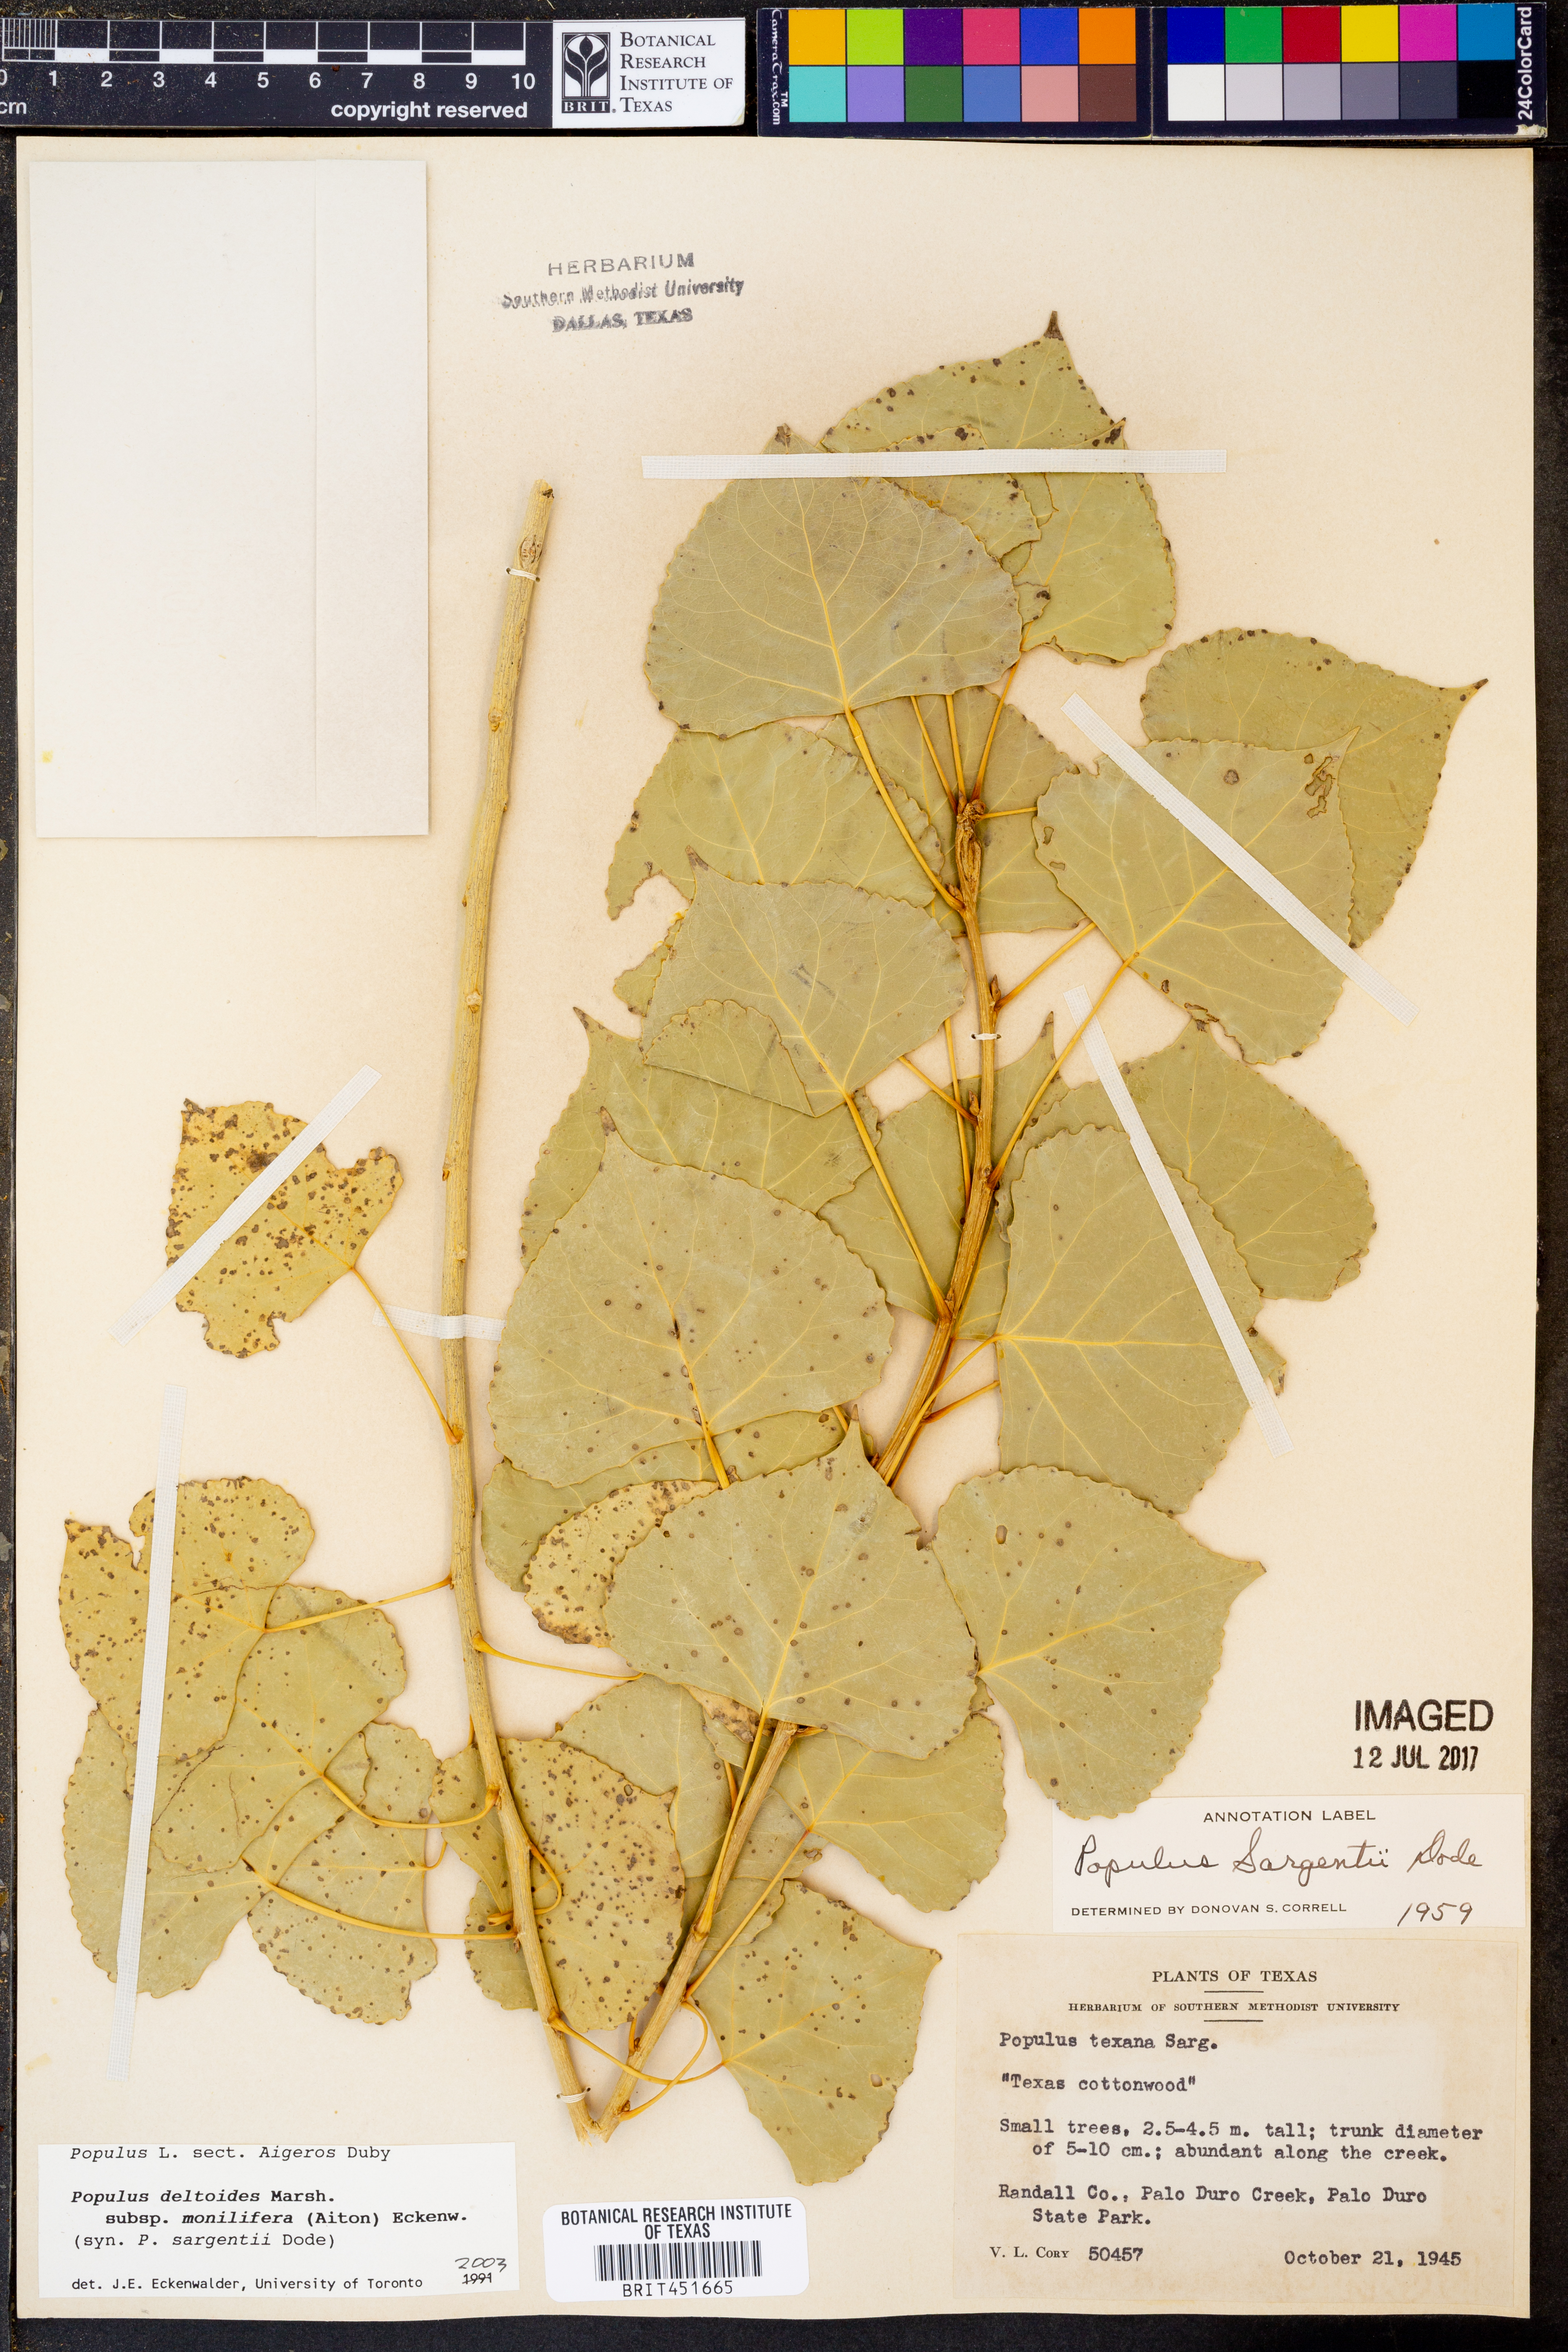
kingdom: Plantae
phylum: Tracheophyta
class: Magnoliopsida
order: Malpighiales
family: Salicaceae
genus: Populus
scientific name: Populus deltoides
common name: Eastern cottonwood
